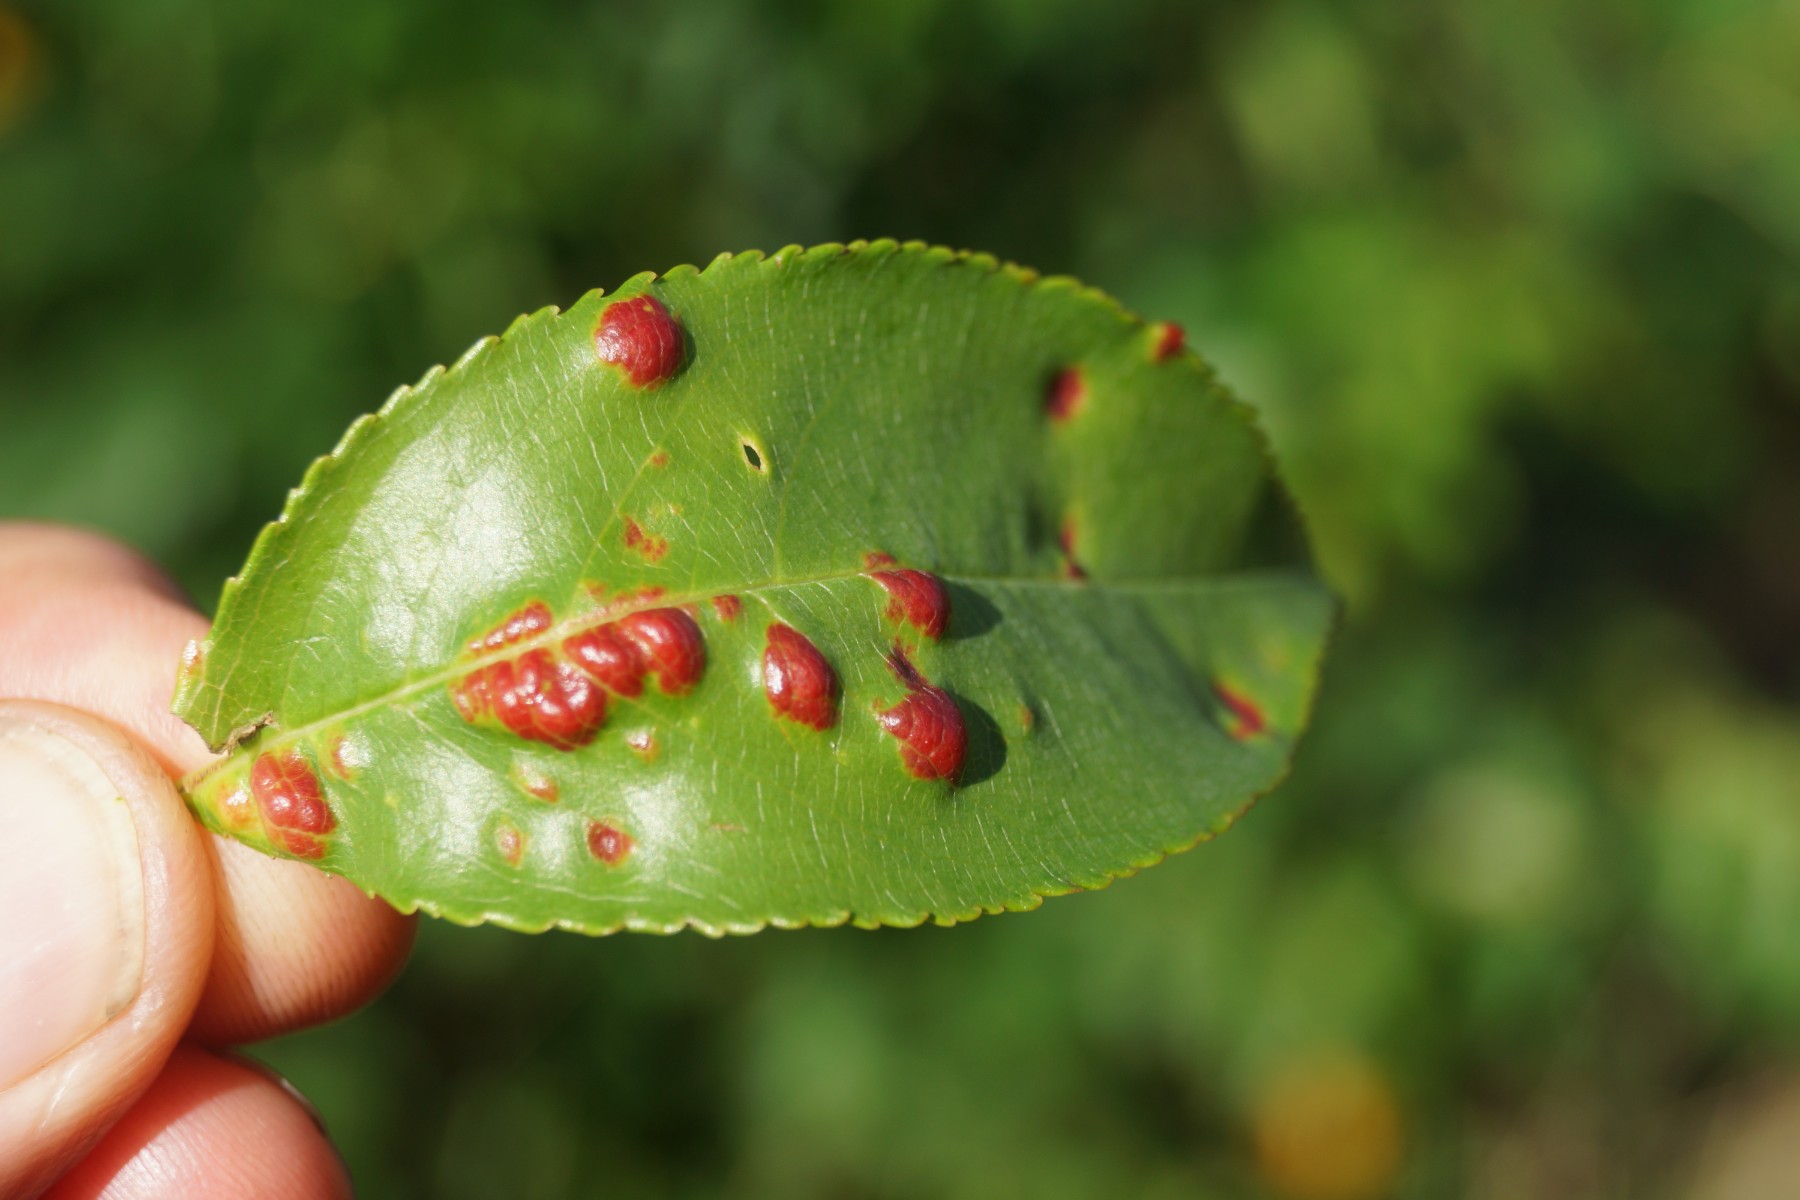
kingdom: Fungi
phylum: Ascomycota
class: Taphrinomycetes
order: Taphrinales
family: Taphrinaceae
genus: Taphrina
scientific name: Taphrina farlowii
